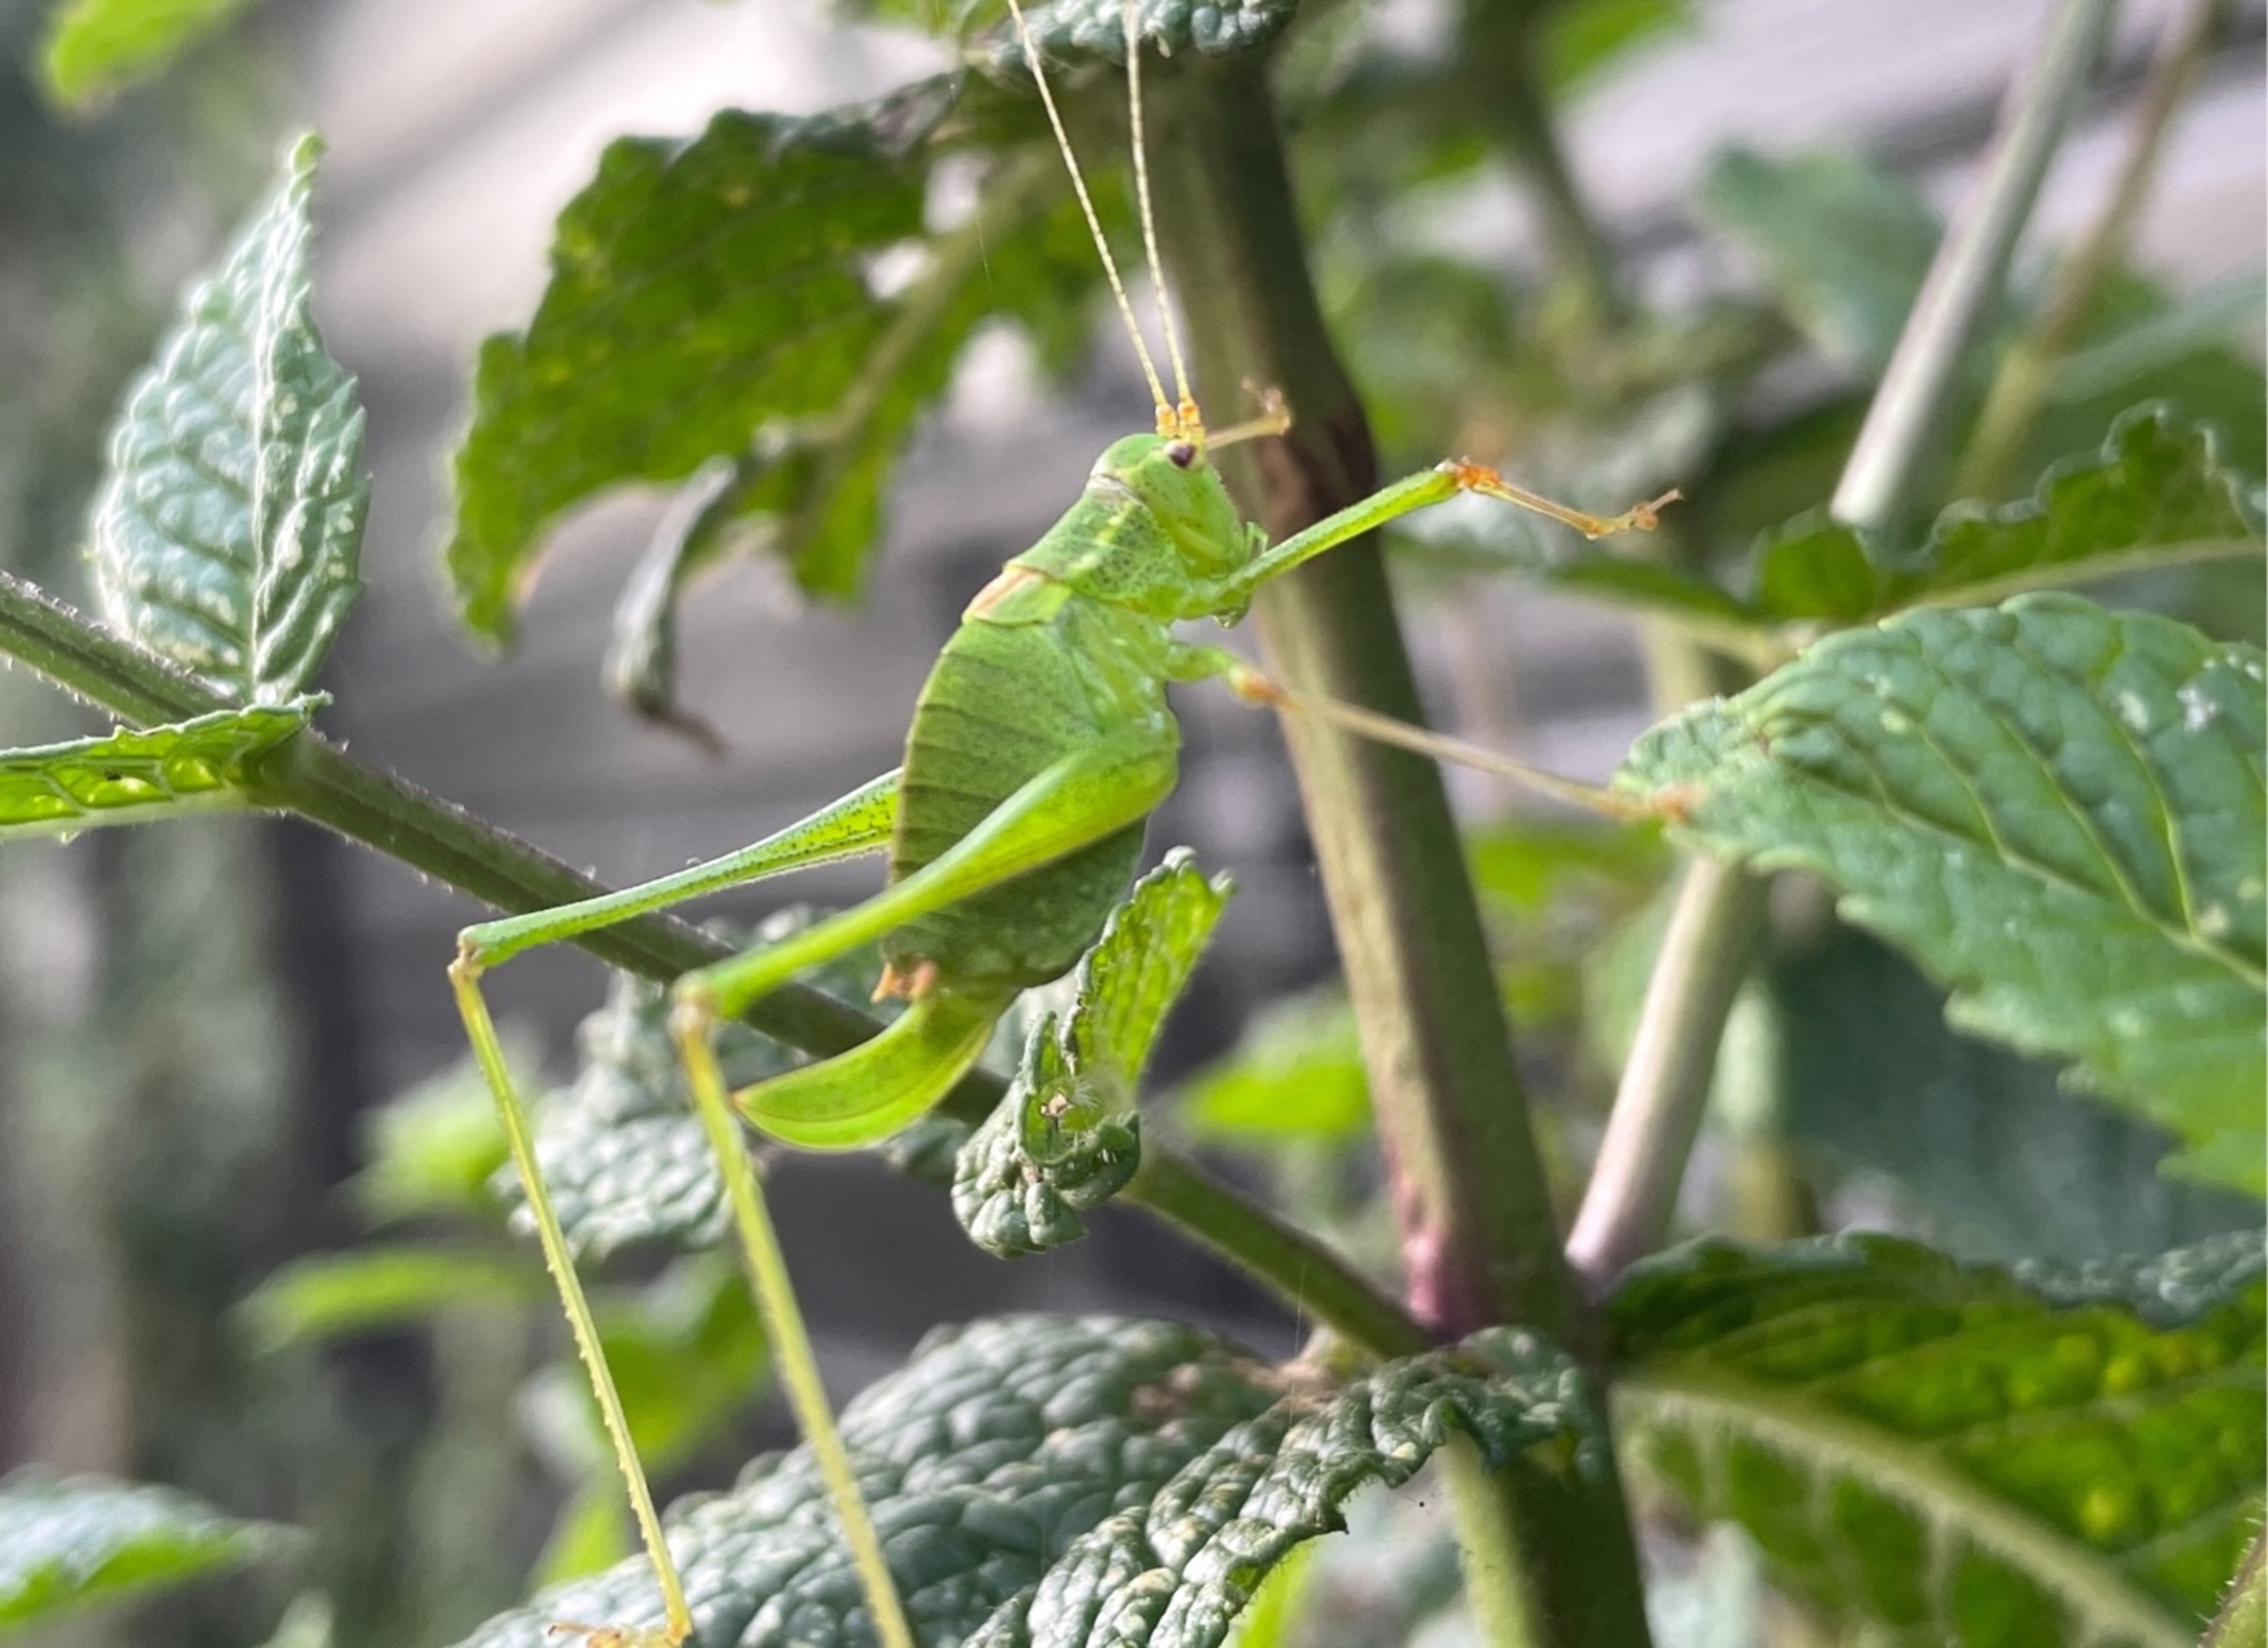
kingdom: Animalia
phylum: Arthropoda
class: Insecta
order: Orthoptera
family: Tettigoniidae
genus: Leptophyes
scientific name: Leptophyes punctatissima
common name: Krumknivgræshoppe
